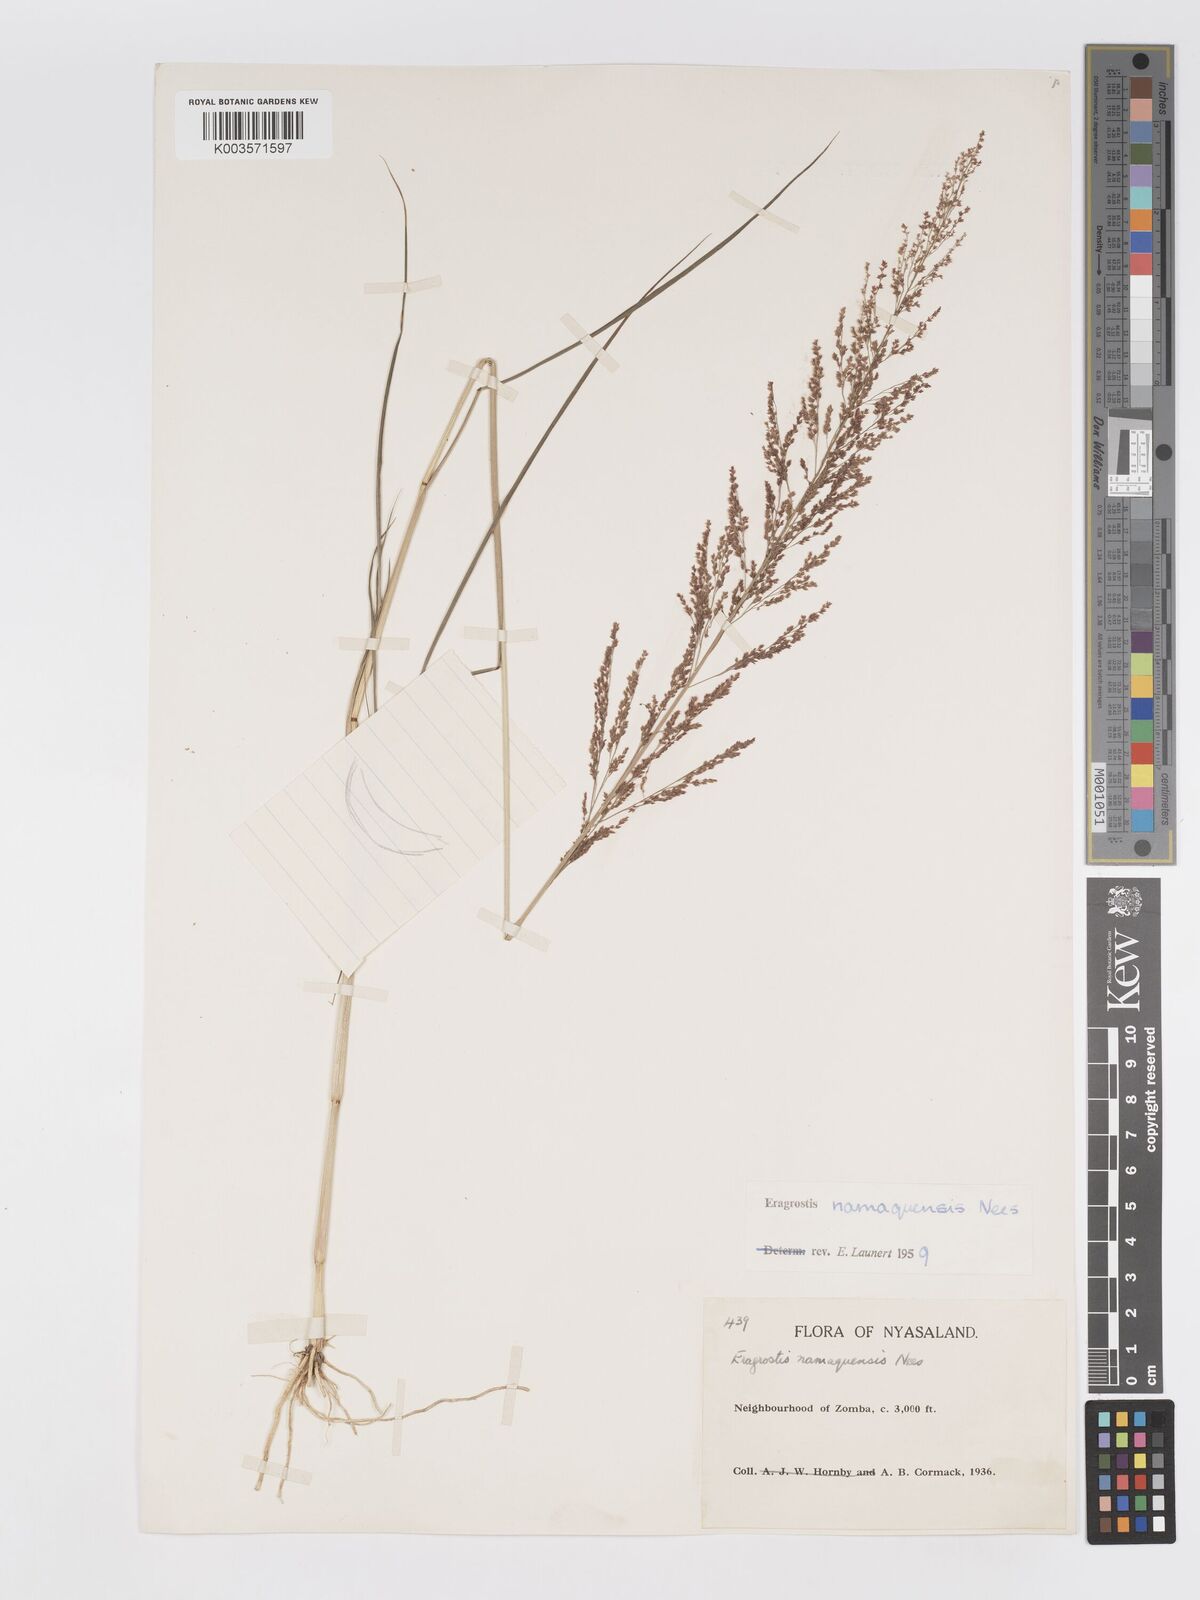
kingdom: Plantae
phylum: Tracheophyta
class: Liliopsida
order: Poales
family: Poaceae
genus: Eragrostis
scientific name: Eragrostis japonica
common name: Pond lovegrass
